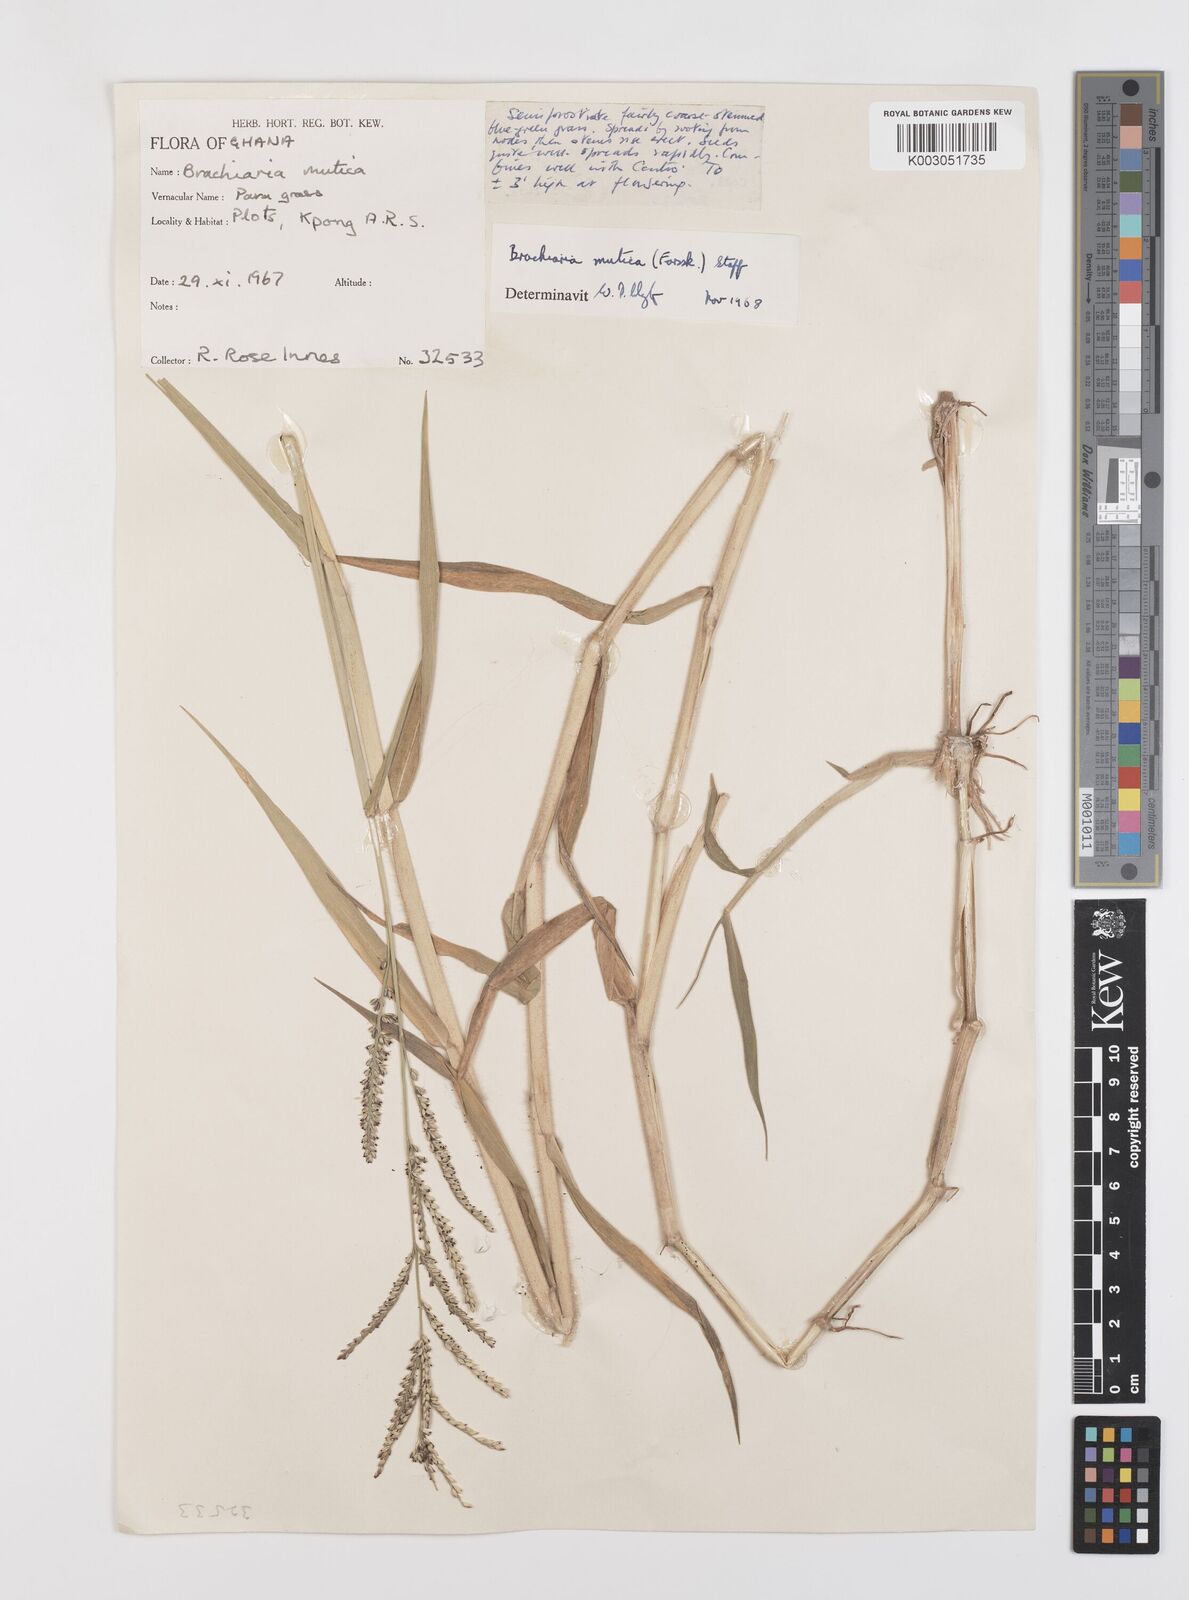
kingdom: Plantae
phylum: Tracheophyta
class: Liliopsida
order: Poales
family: Poaceae
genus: Urochloa
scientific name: Urochloa mutica
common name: Para grass
